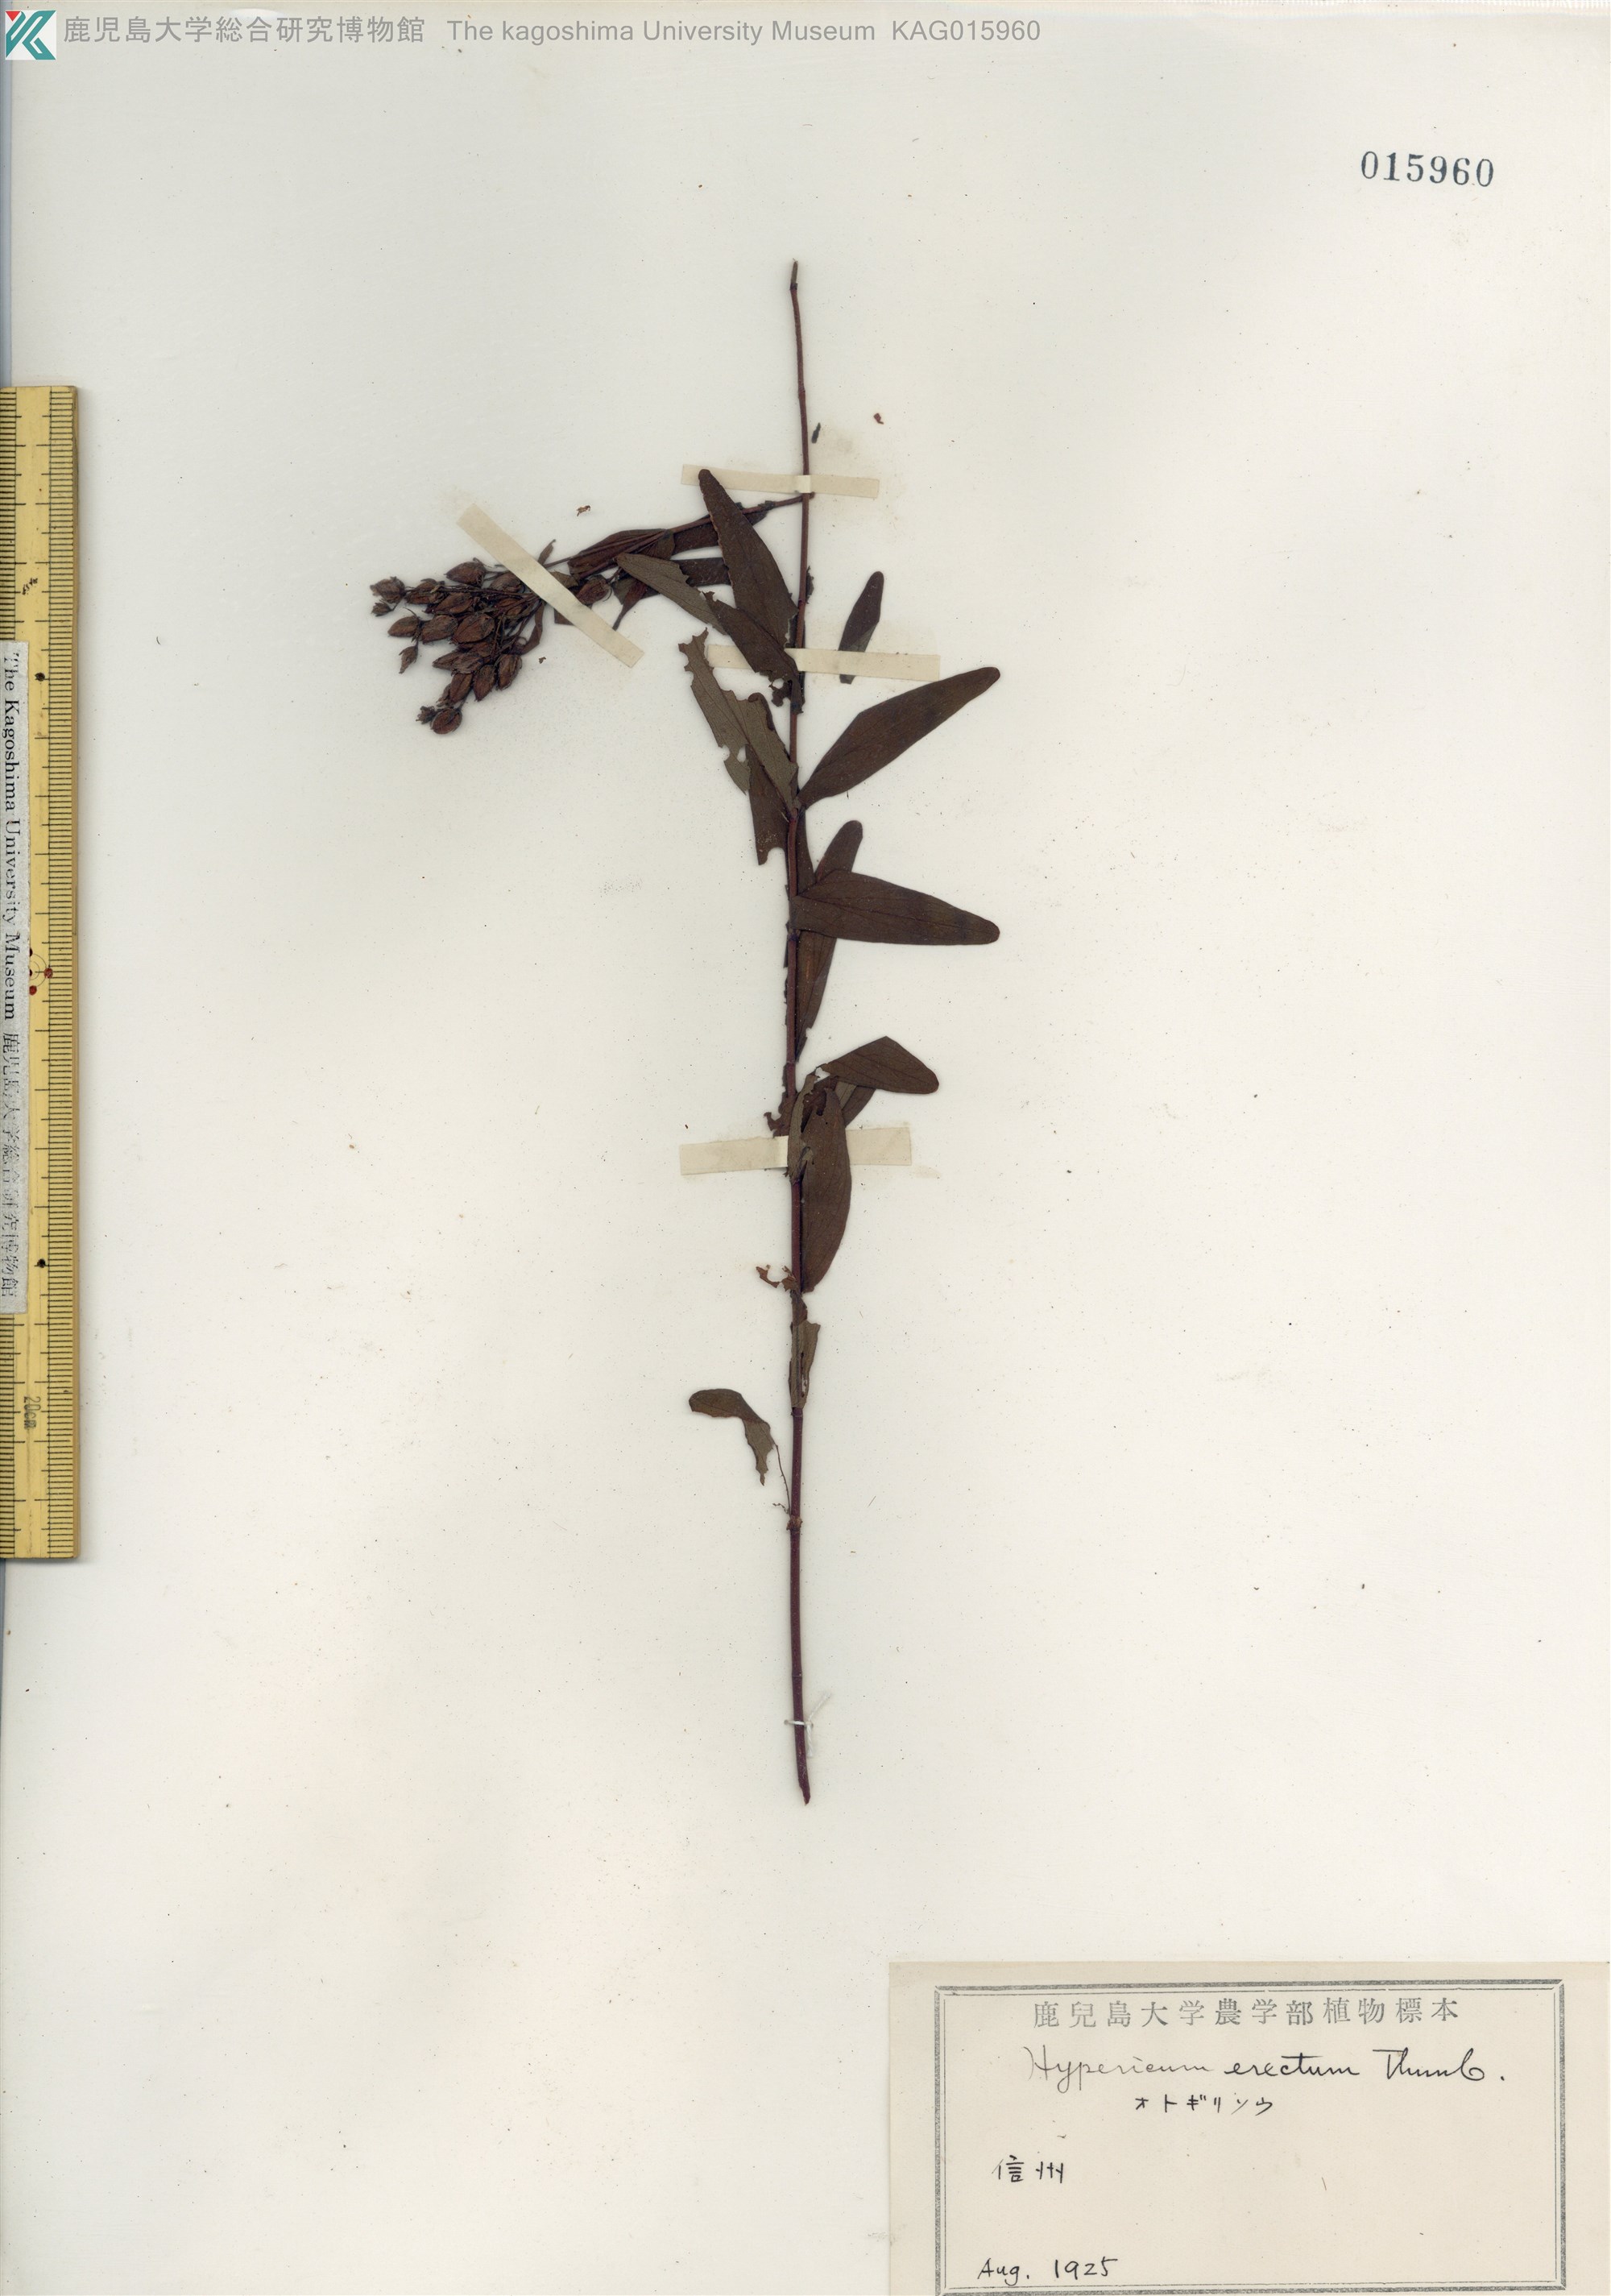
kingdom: Plantae
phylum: Tracheophyta
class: Magnoliopsida
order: Malpighiales
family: Hypericaceae
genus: Hypericum
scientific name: Hypericum erectum
